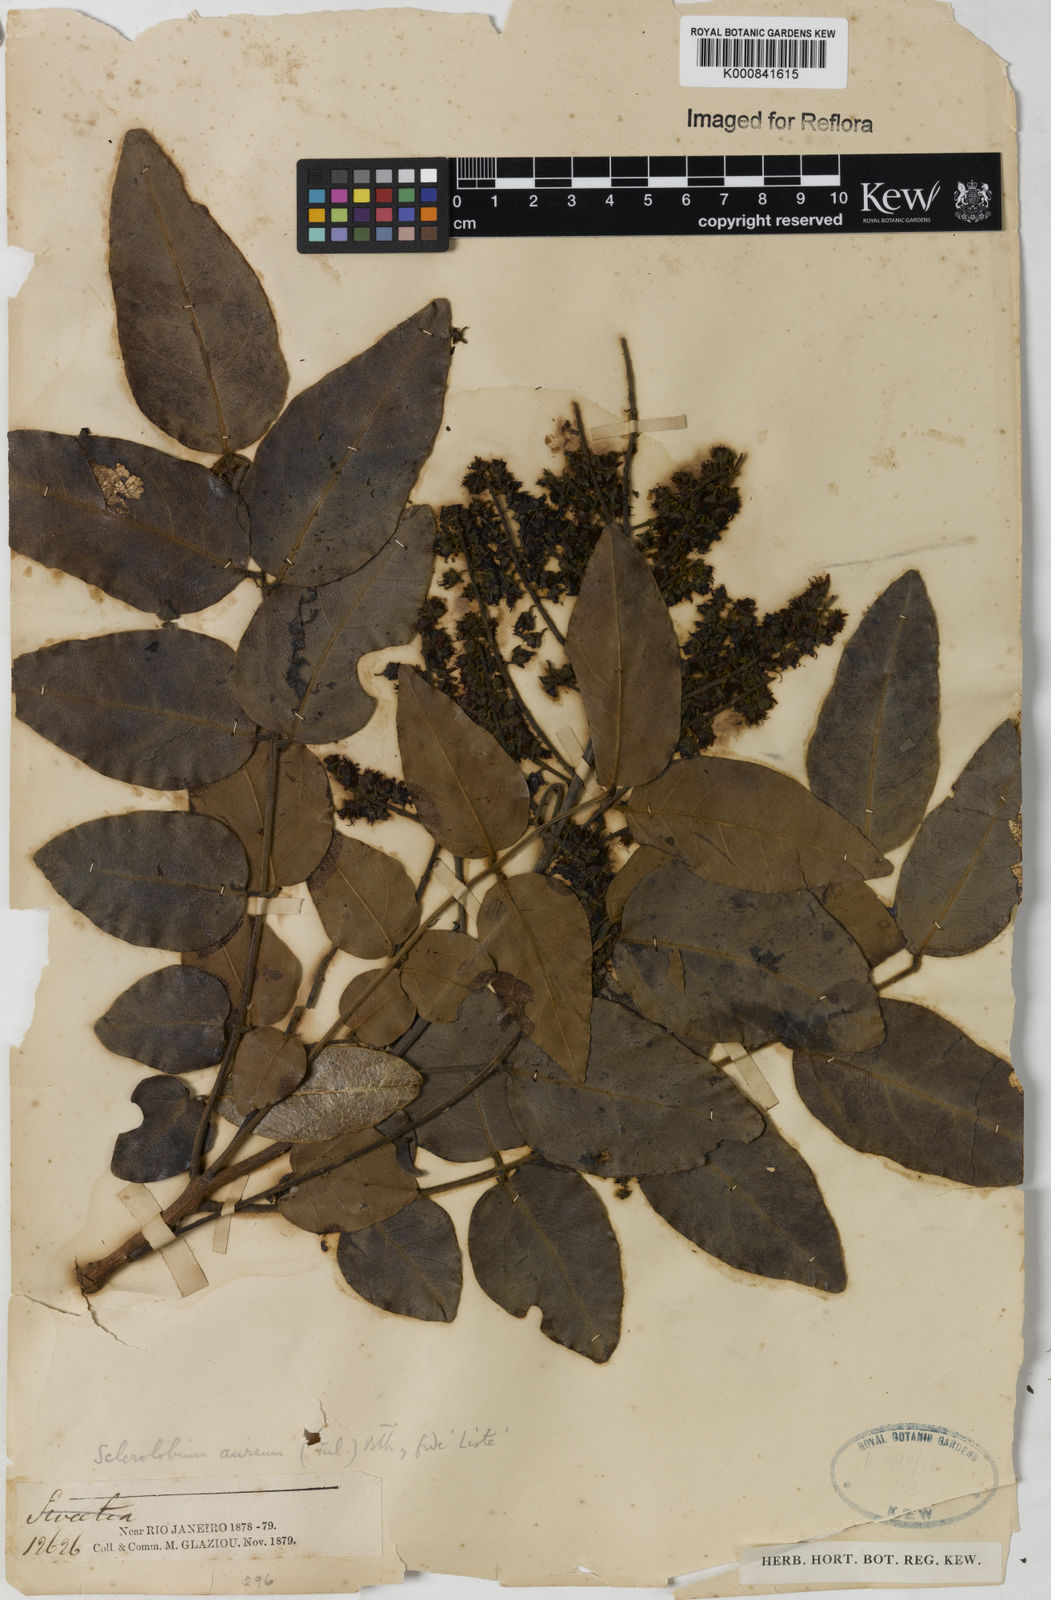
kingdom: Plantae
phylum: Tracheophyta
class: Magnoliopsida
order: Fabales
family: Fabaceae
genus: Tachigali
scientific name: Tachigali aurea
